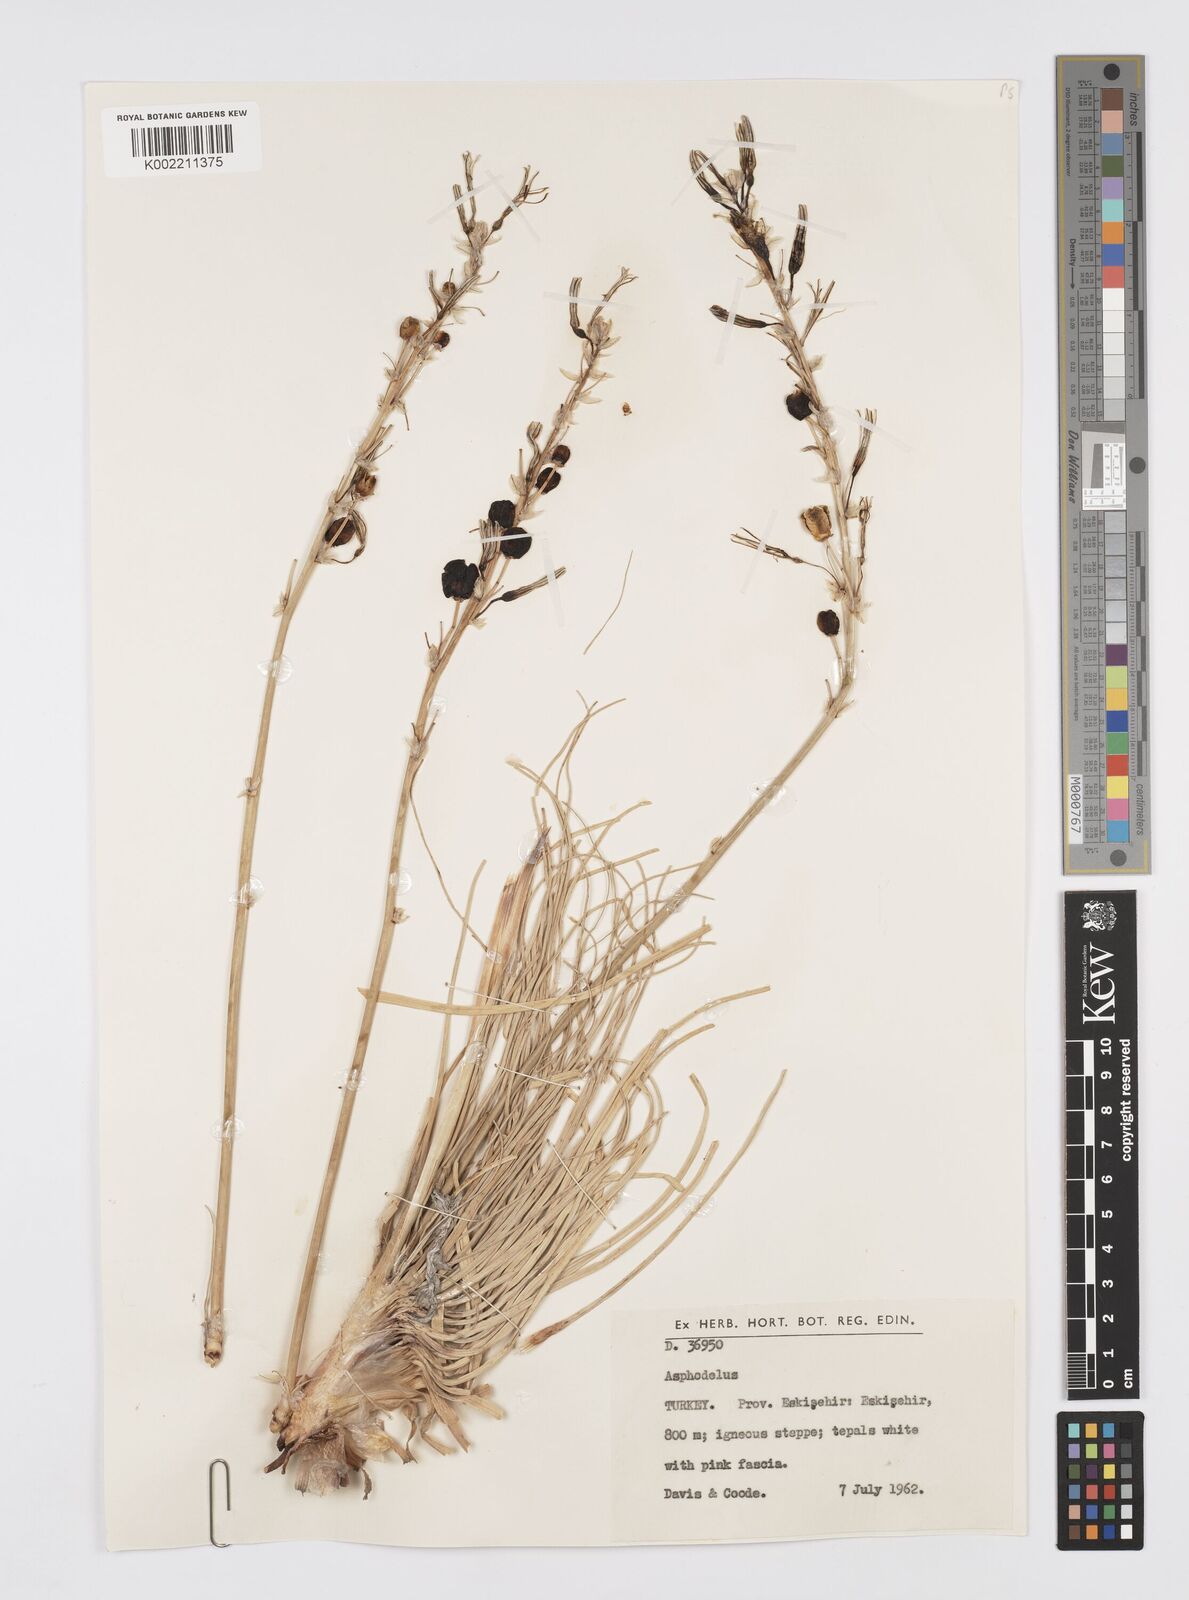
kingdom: Plantae
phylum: Tracheophyta
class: Liliopsida
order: Asparagales
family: Asphodelaceae
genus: Asphodelus
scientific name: Asphodelus
